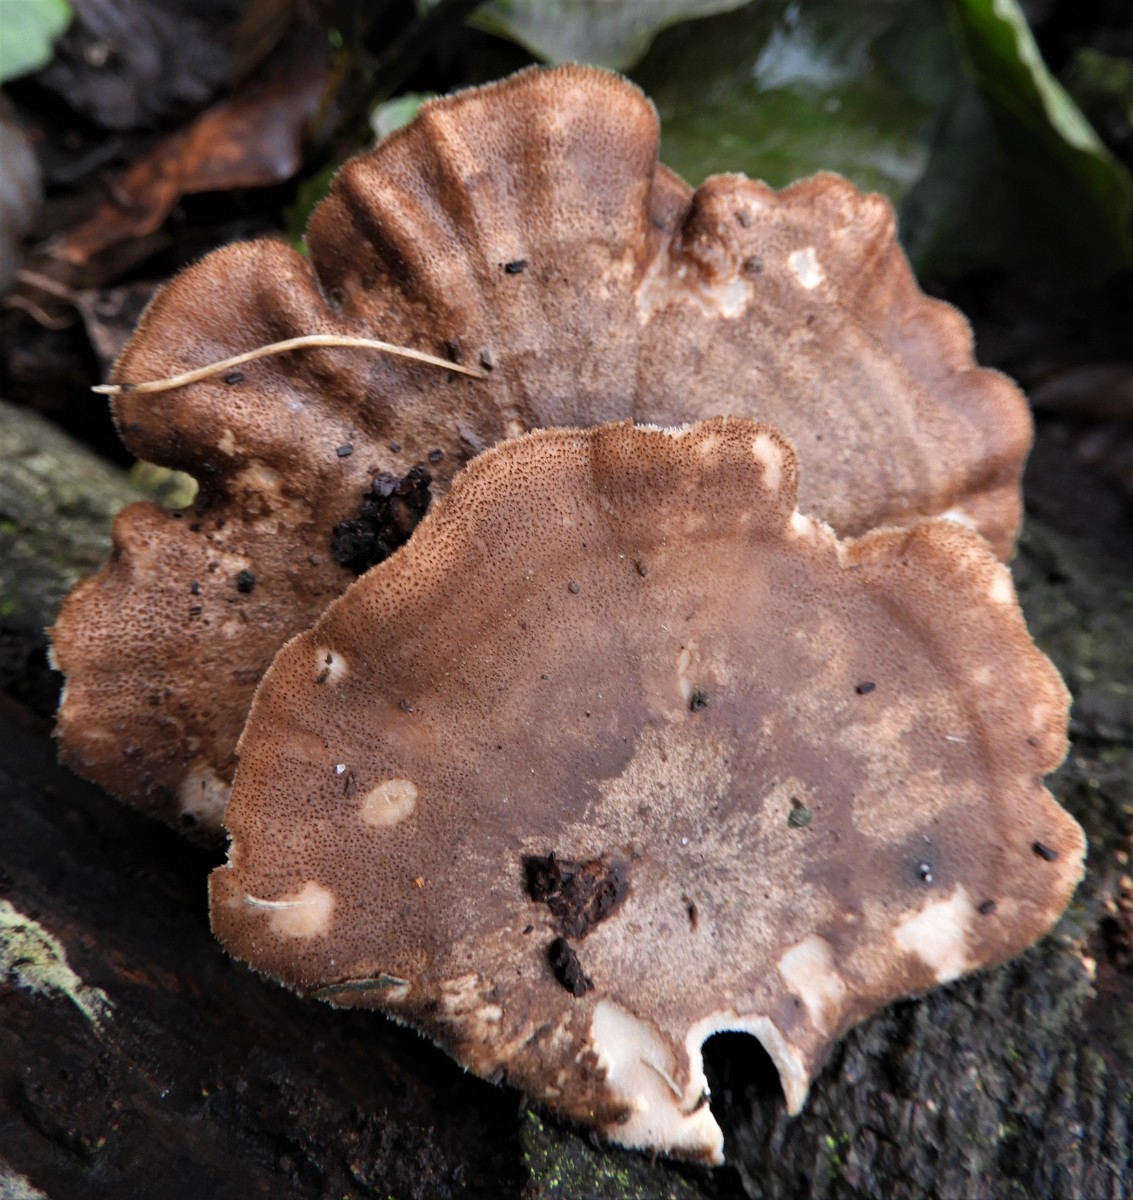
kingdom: Fungi
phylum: Basidiomycota
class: Agaricomycetes
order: Polyporales
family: Polyporaceae
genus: Lentinus
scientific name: Lentinus brumalis
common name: vinter-stilkporesvamp
